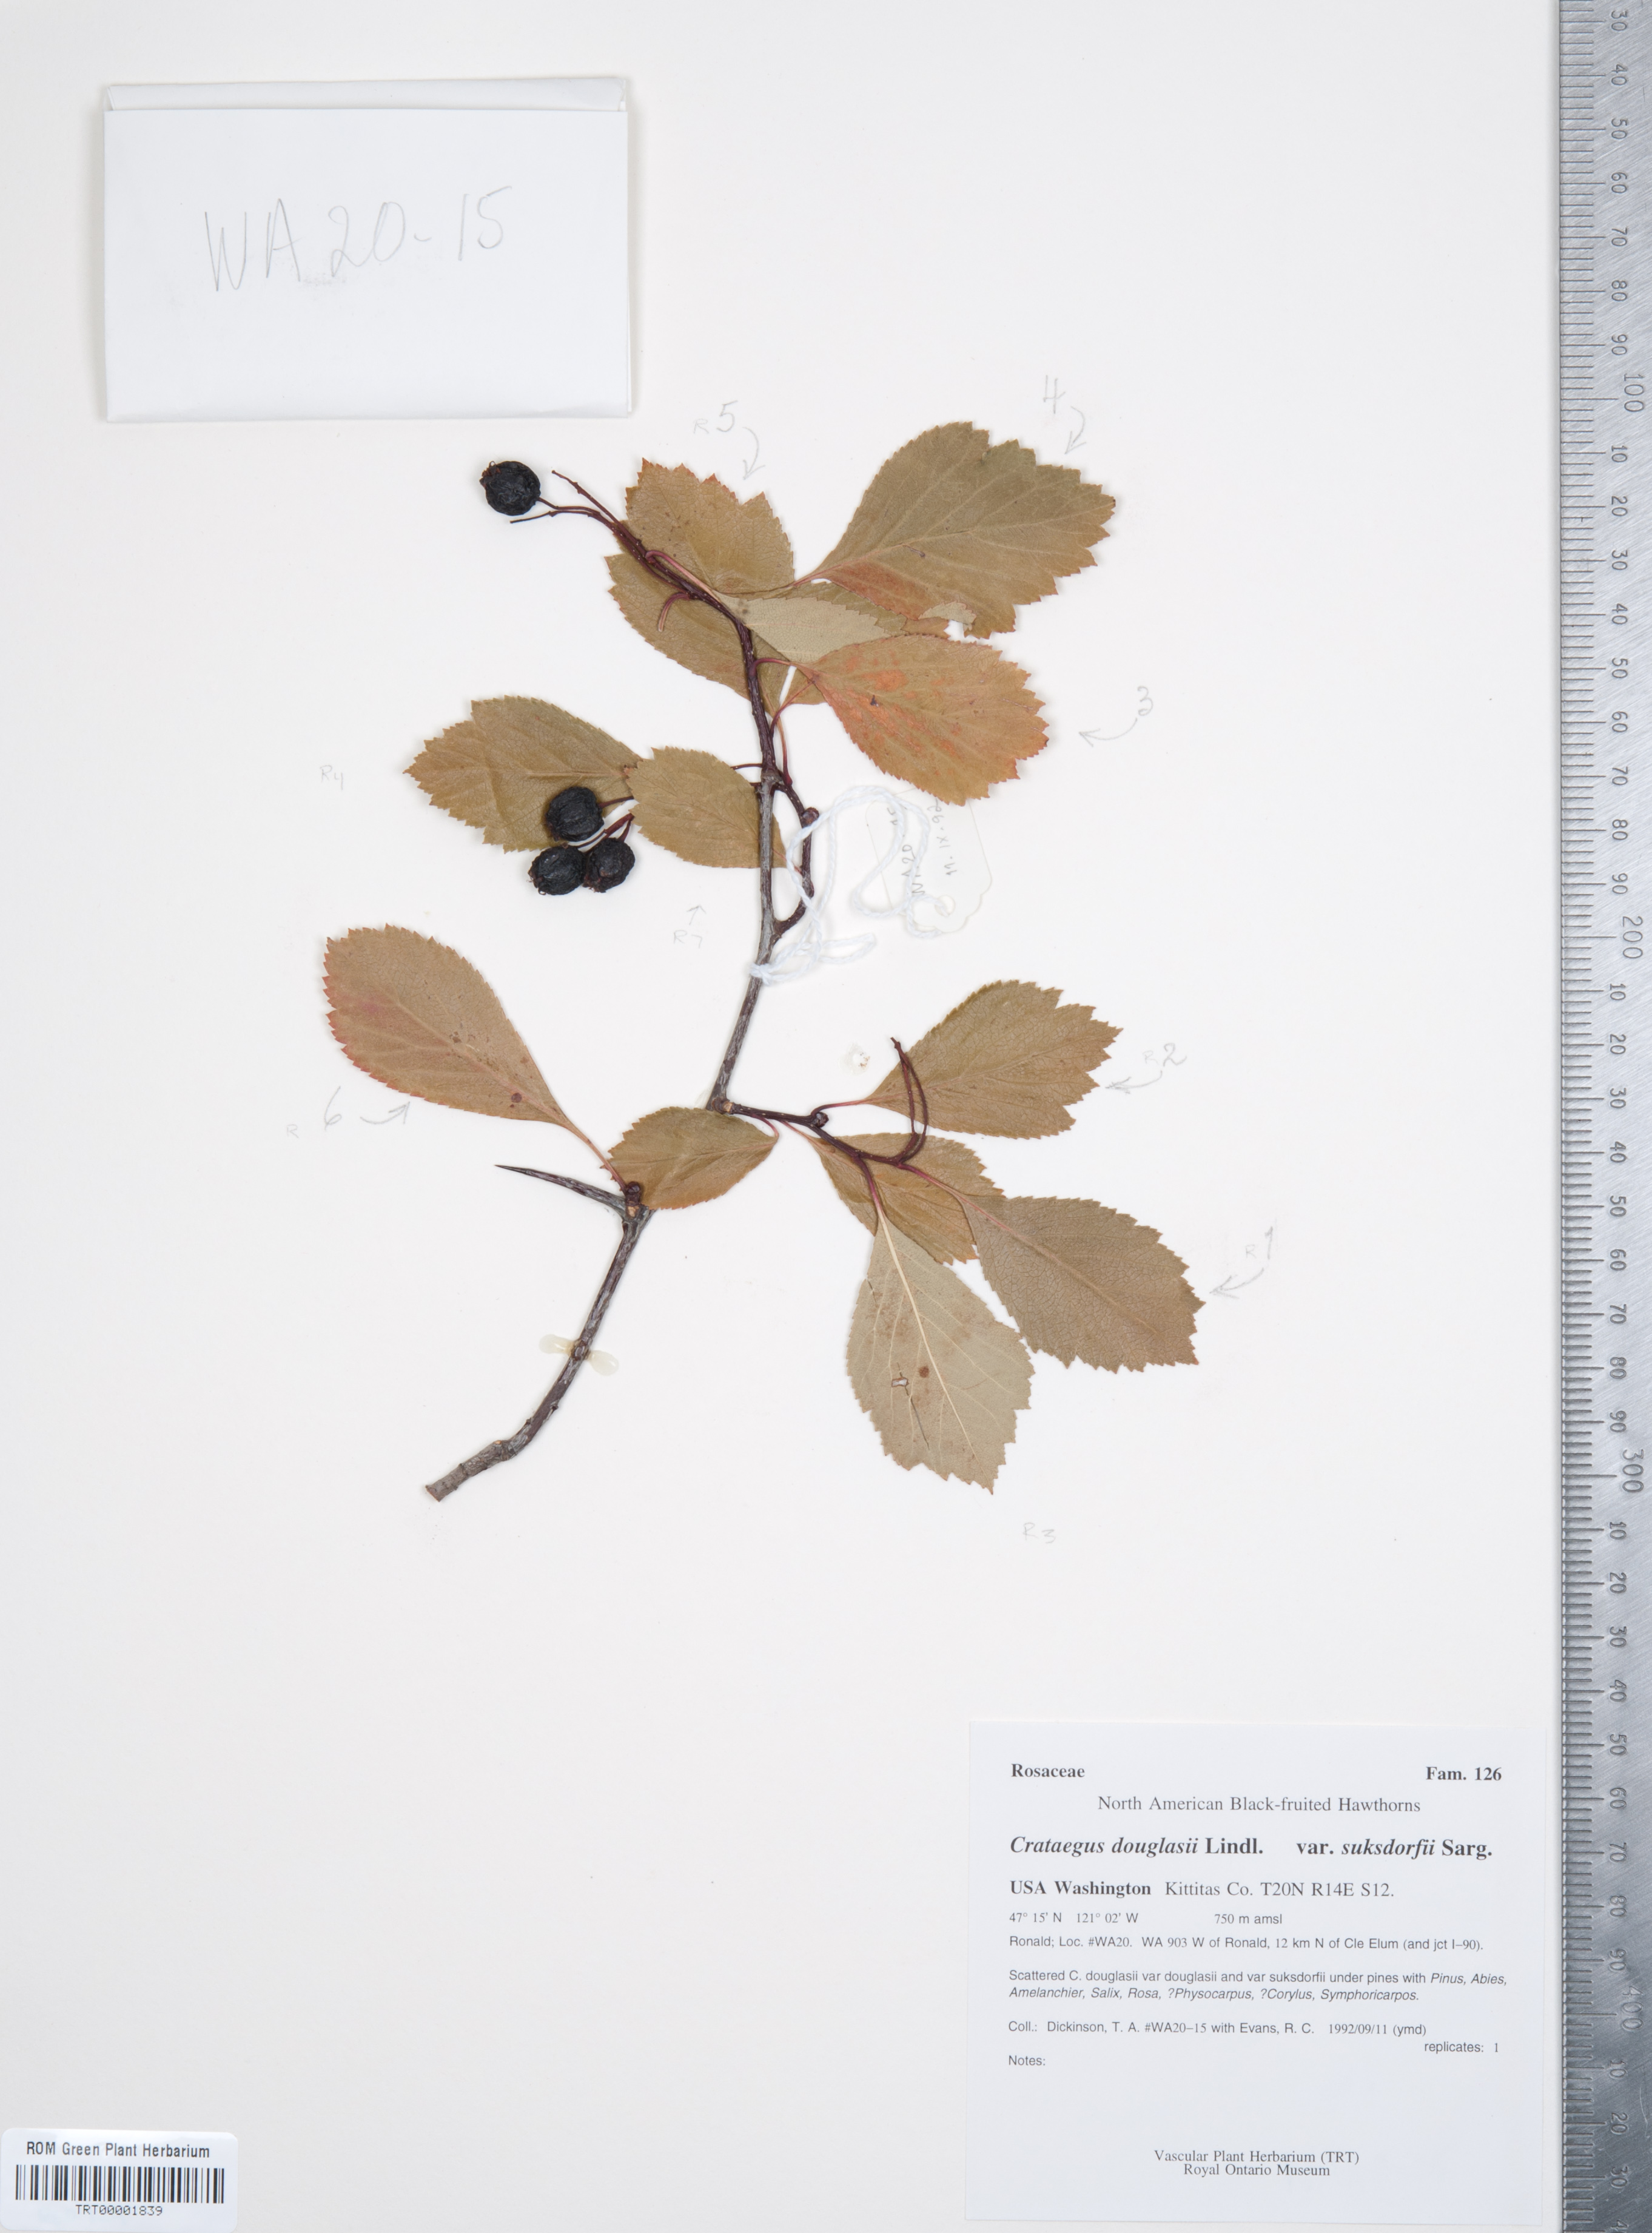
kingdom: Plantae
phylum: Tracheophyta
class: Magnoliopsida
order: Rosales
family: Rosaceae
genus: Crataegus
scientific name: Crataegus gaylussacia
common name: Huckleberry hawthorn
